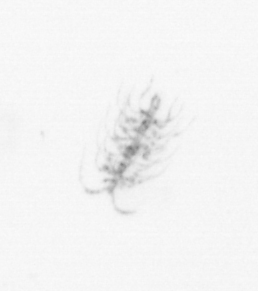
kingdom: Chromista
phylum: Ochrophyta
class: Bacillariophyceae
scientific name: Bacillariophyceae
